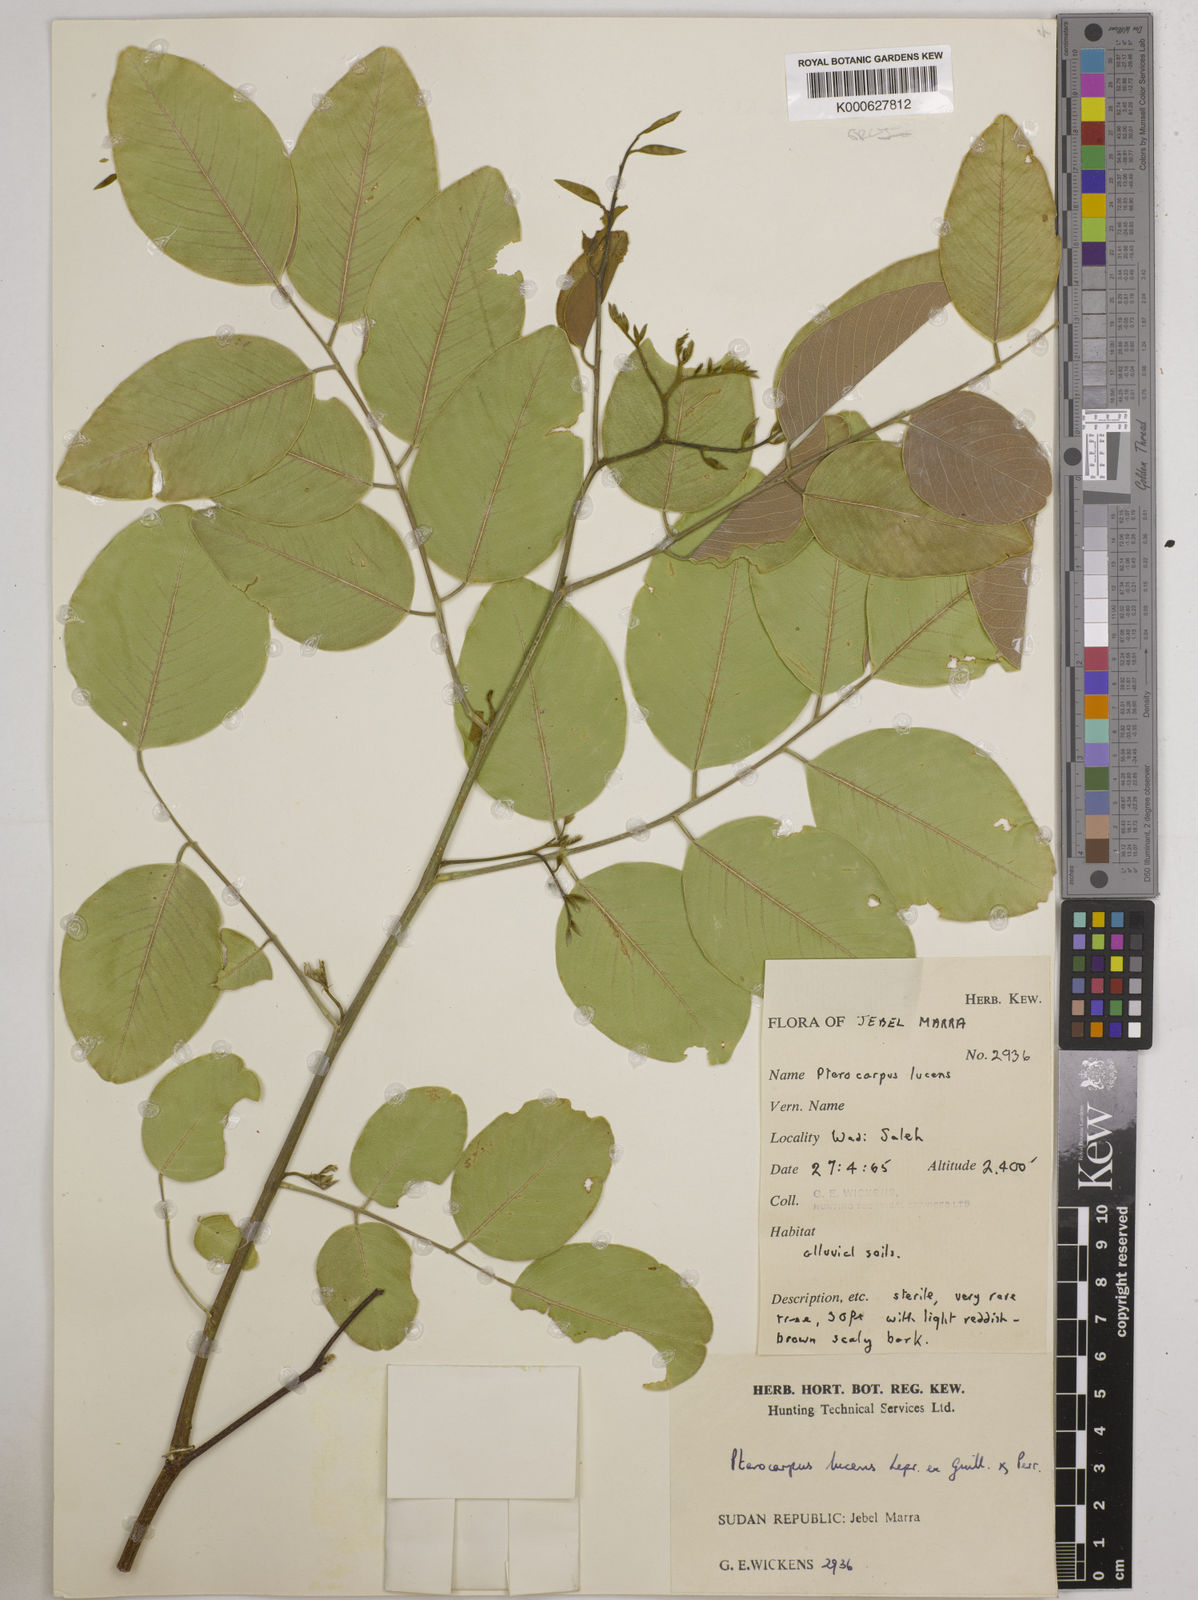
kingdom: Plantae
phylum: Tracheophyta
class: Magnoliopsida
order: Fabales
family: Fabaceae
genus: Pterocarpus
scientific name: Pterocarpus lucens
